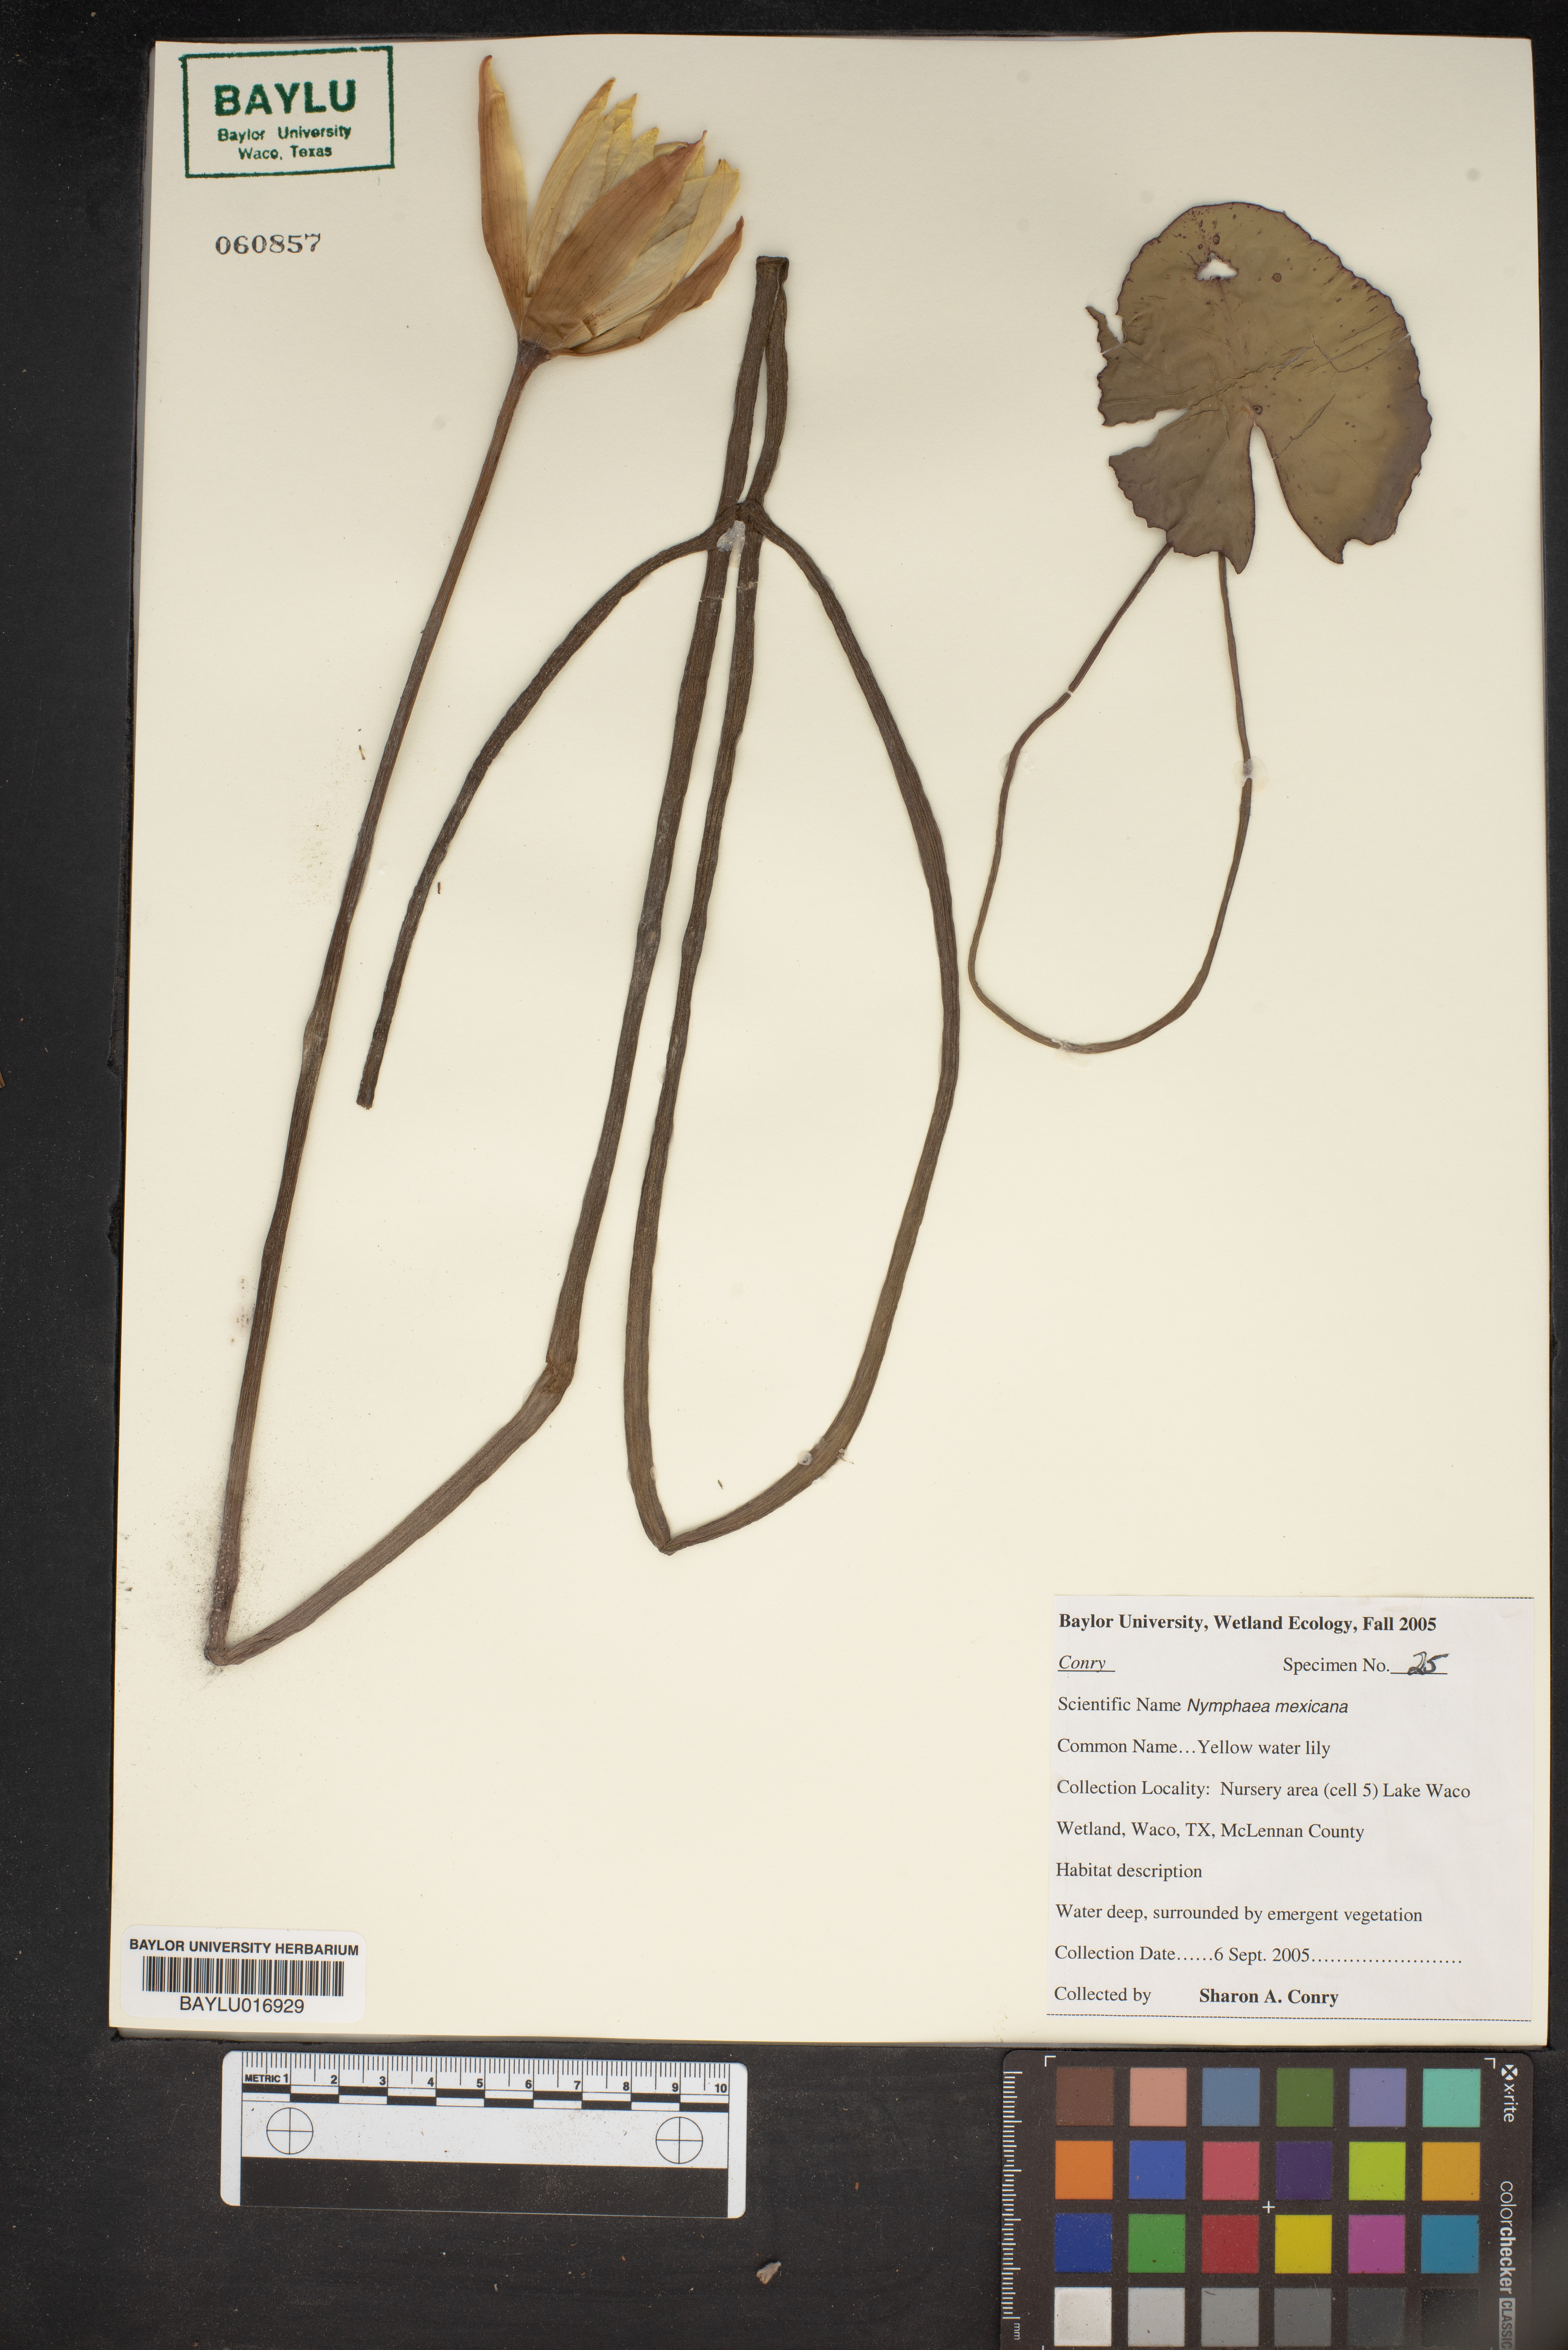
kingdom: Plantae
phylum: Tracheophyta
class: Magnoliopsida
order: Nymphaeales
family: Nymphaeaceae
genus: Nymphaea
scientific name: Nymphaea mexicana
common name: Banana water-lily
